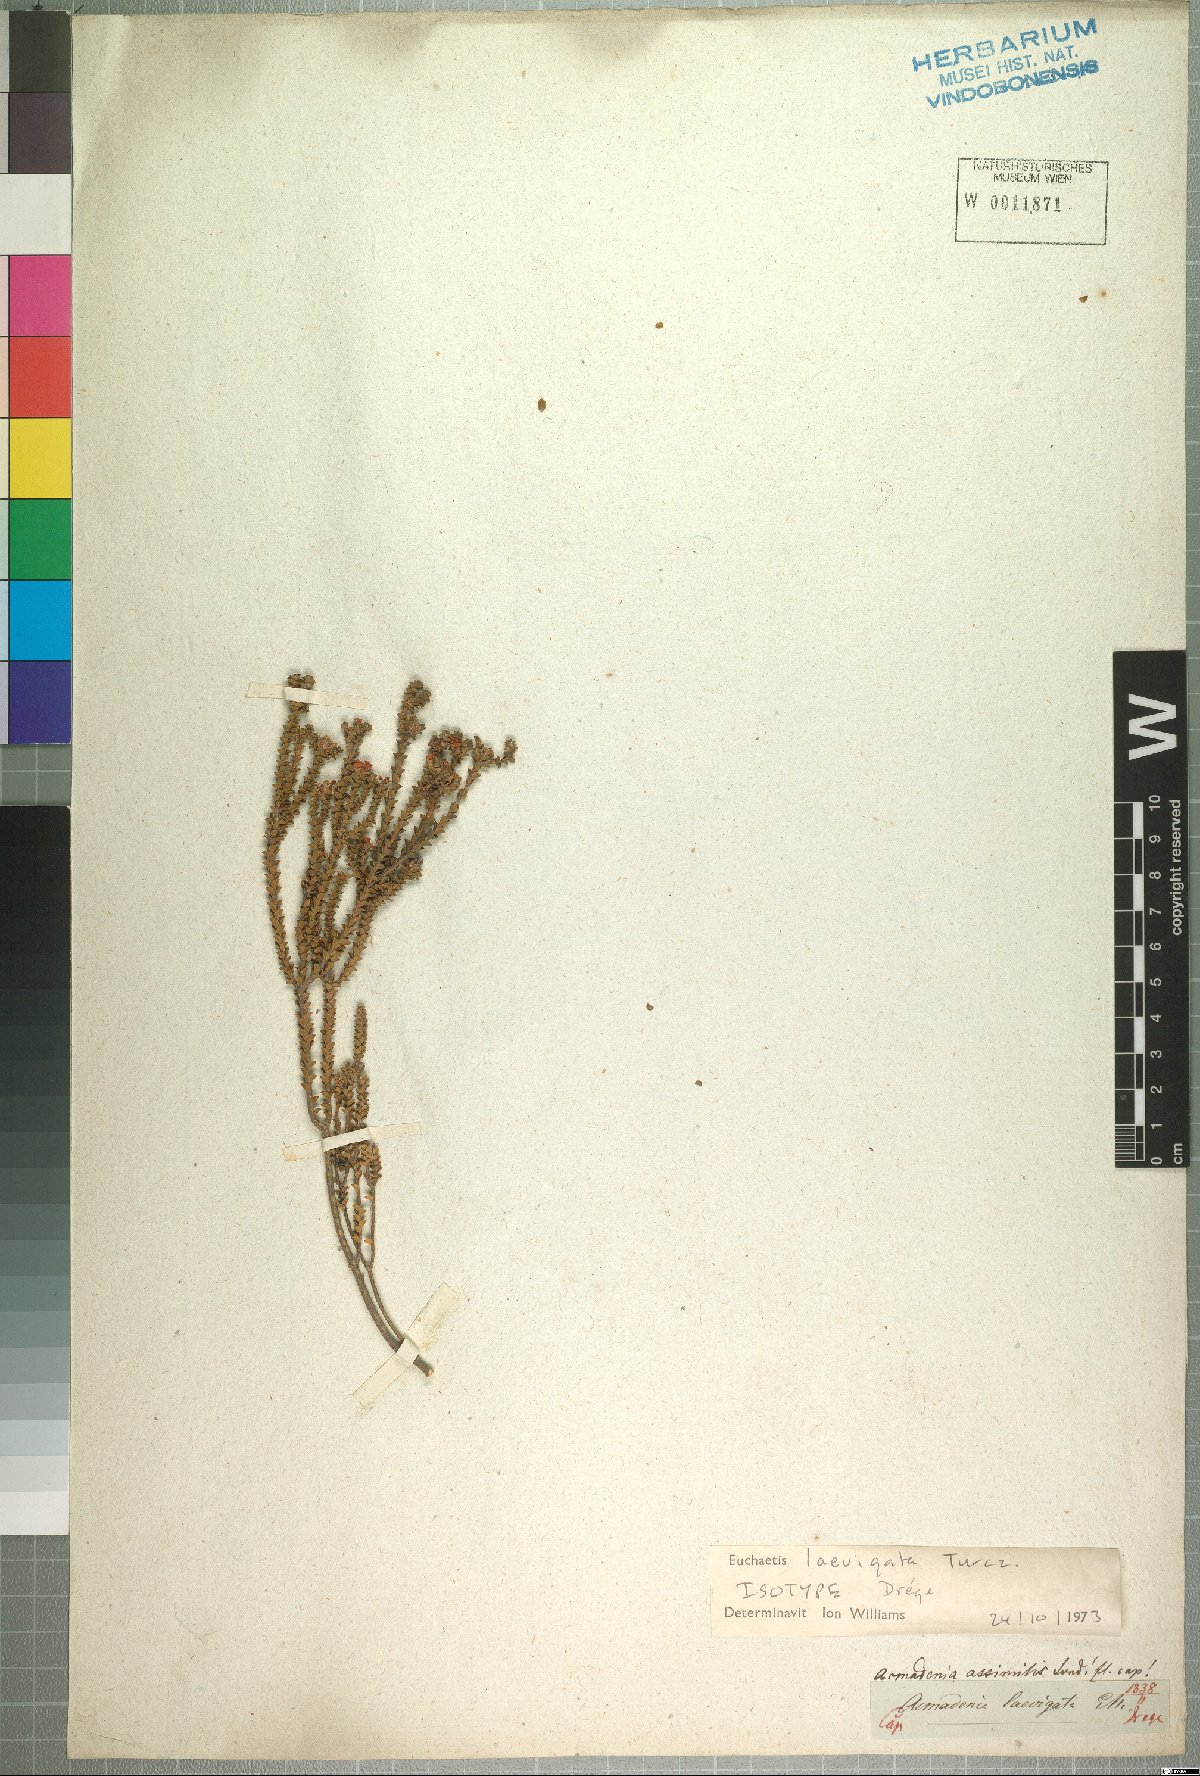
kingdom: Plantae
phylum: Tracheophyta
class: Magnoliopsida
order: Sapindales
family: Rutaceae
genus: Euchaetis
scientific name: Euchaetis laevigata
